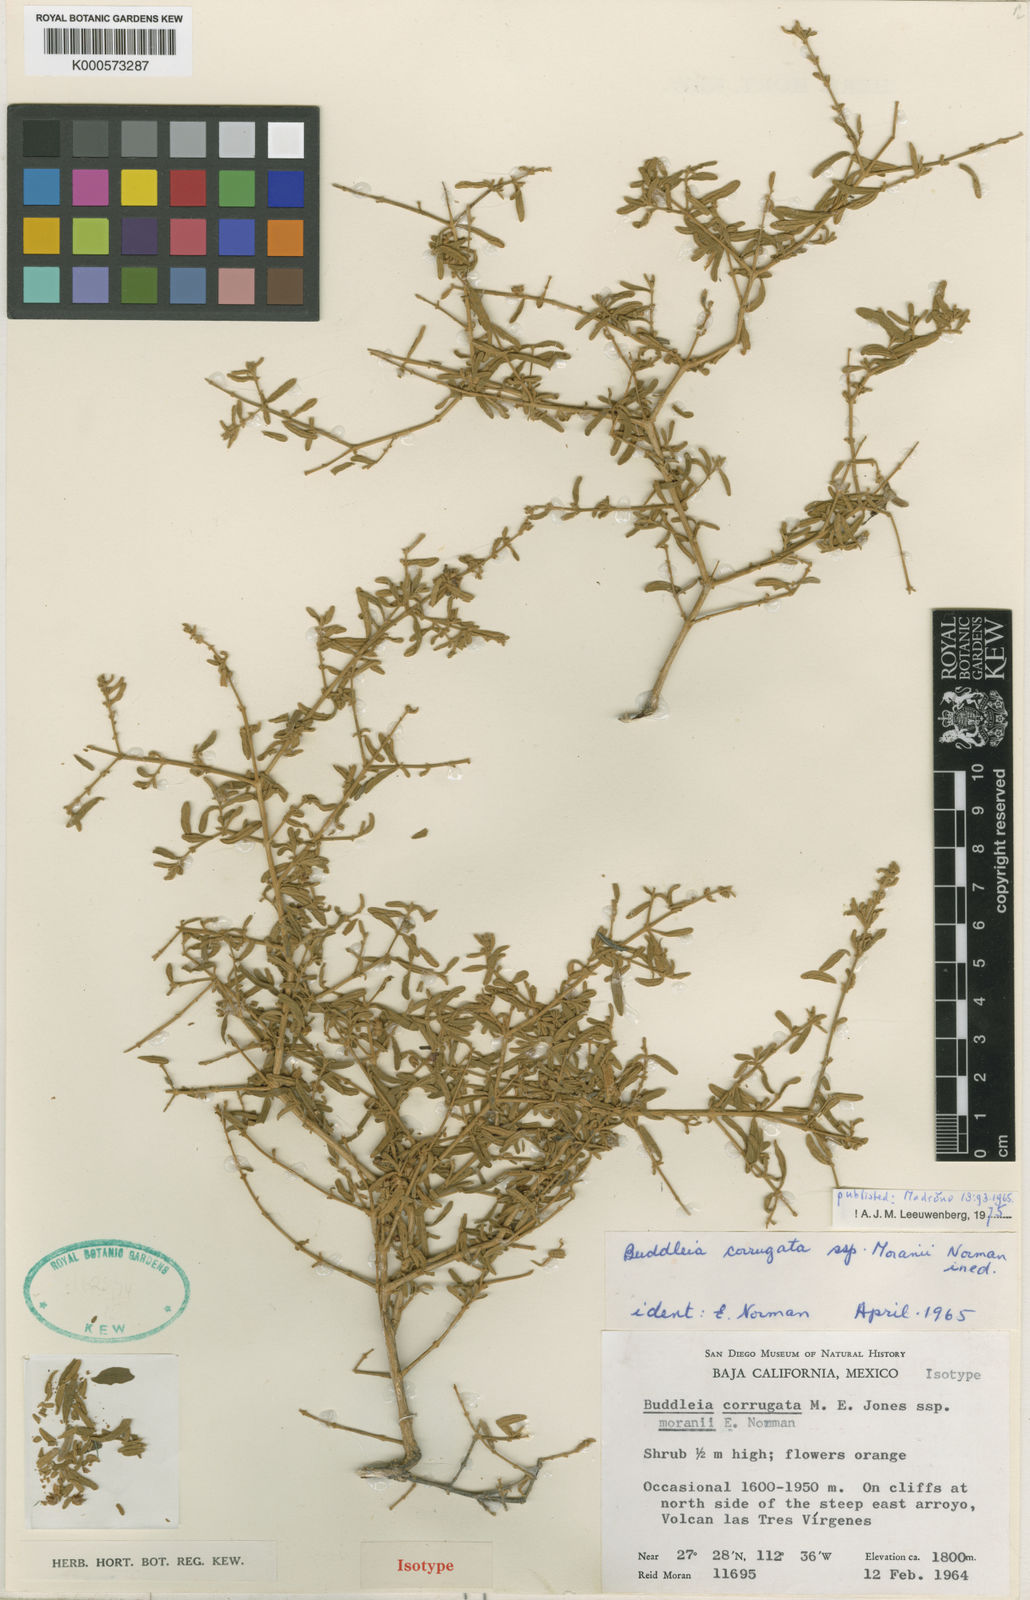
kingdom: Plantae
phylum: Tracheophyta
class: Magnoliopsida
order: Lamiales
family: Scrophulariaceae
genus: Buddleja
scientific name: Buddleja corrugata
